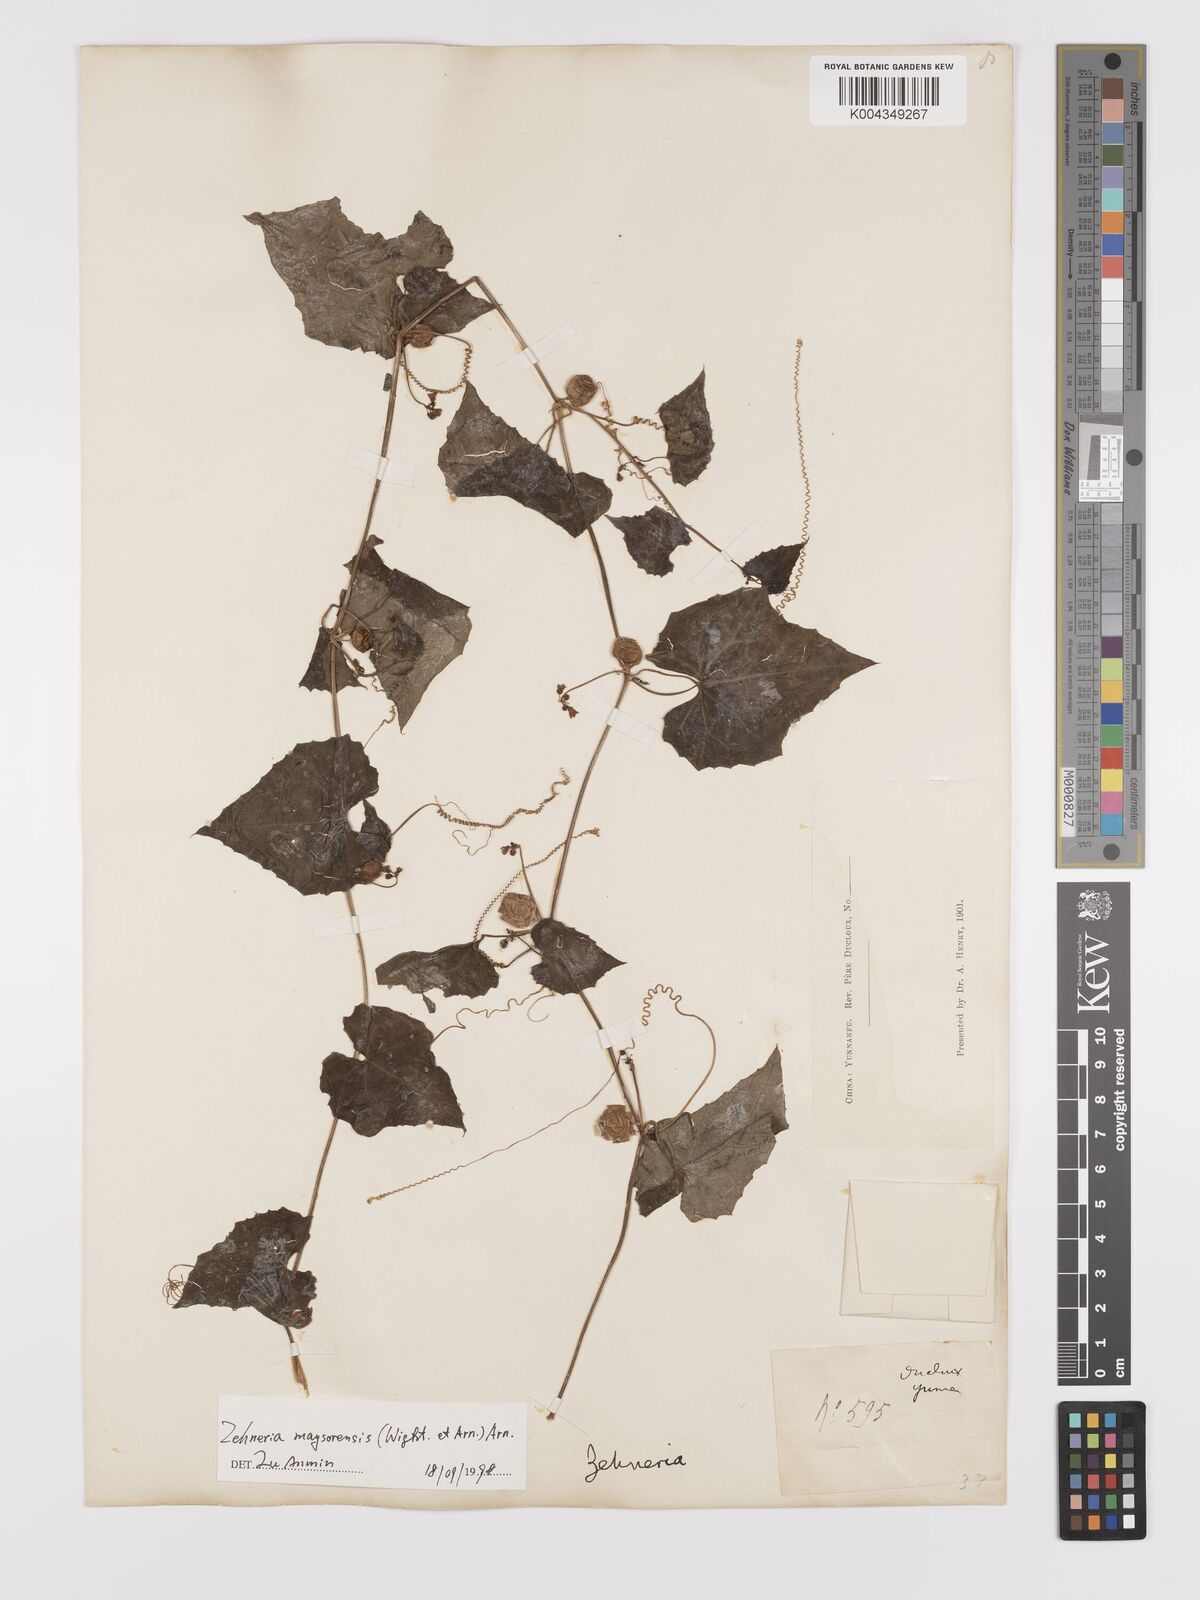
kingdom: Plantae
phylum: Tracheophyta
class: Magnoliopsida
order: Cucurbitales
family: Cucurbitaceae
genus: Zehneria
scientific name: Zehneria maysorensis
